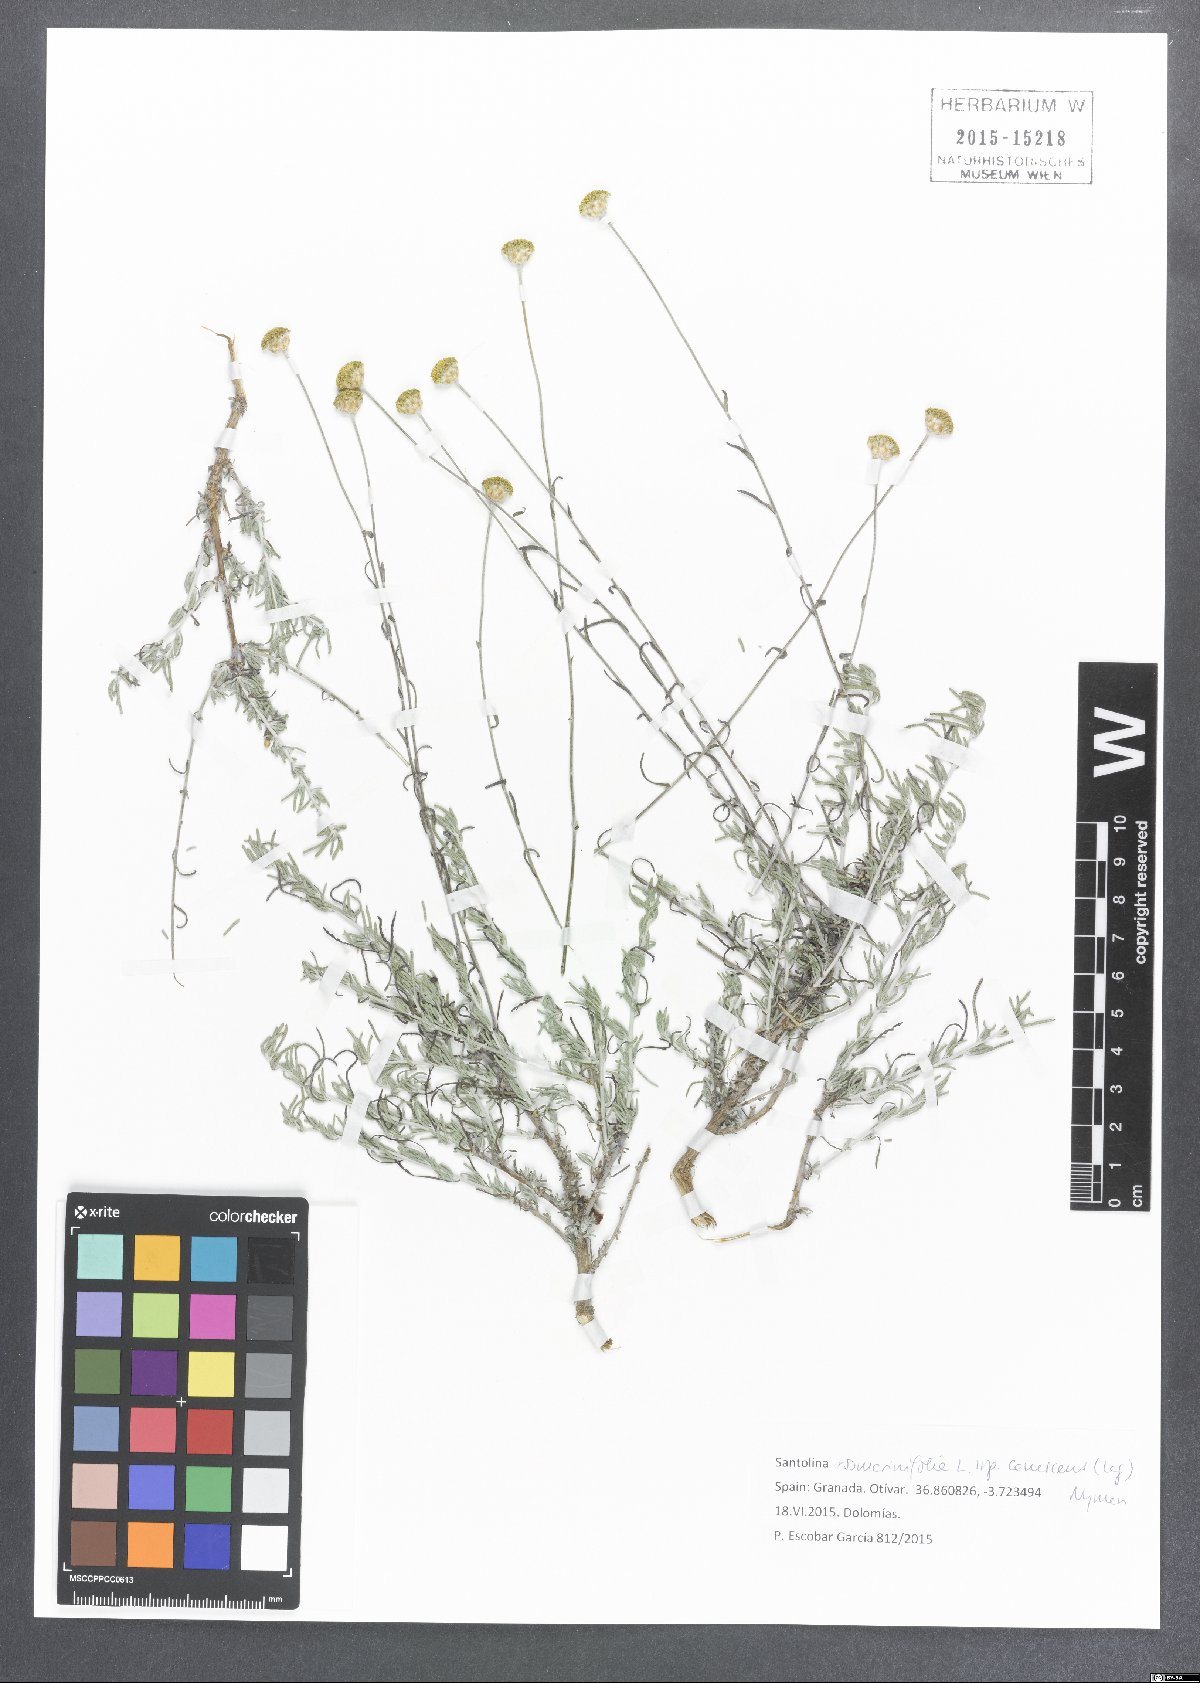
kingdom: Plantae
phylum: Tracheophyta
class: Magnoliopsida
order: Asterales
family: Asteraceae
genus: Santolina
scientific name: Santolina pectinata
